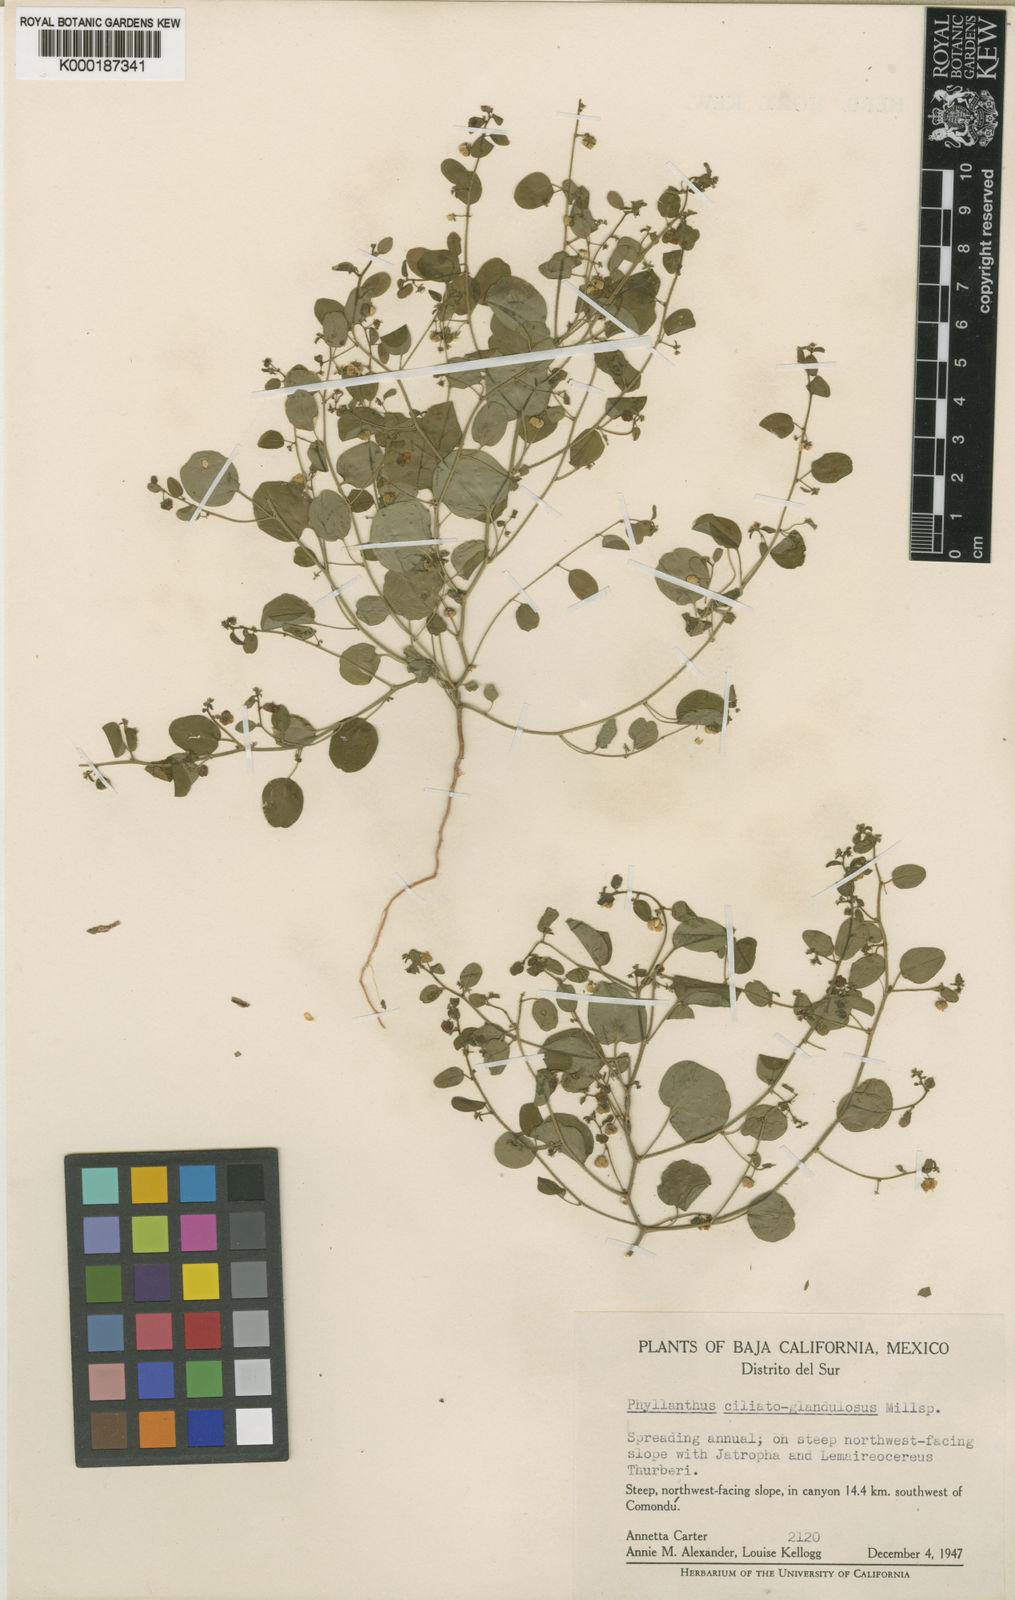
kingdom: Plantae
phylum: Tracheophyta
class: Magnoliopsida
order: Malpighiales
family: Phyllanthaceae
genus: Andrachne
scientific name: Andrachne microphylla
